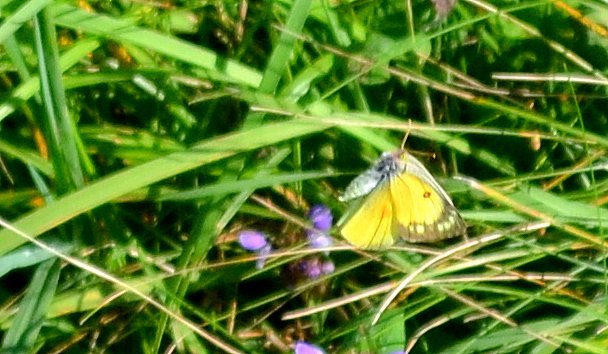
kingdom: Animalia
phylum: Arthropoda
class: Insecta
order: Lepidoptera
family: Pieridae
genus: Colias
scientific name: Colias eurytheme
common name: Orange Sulphur
